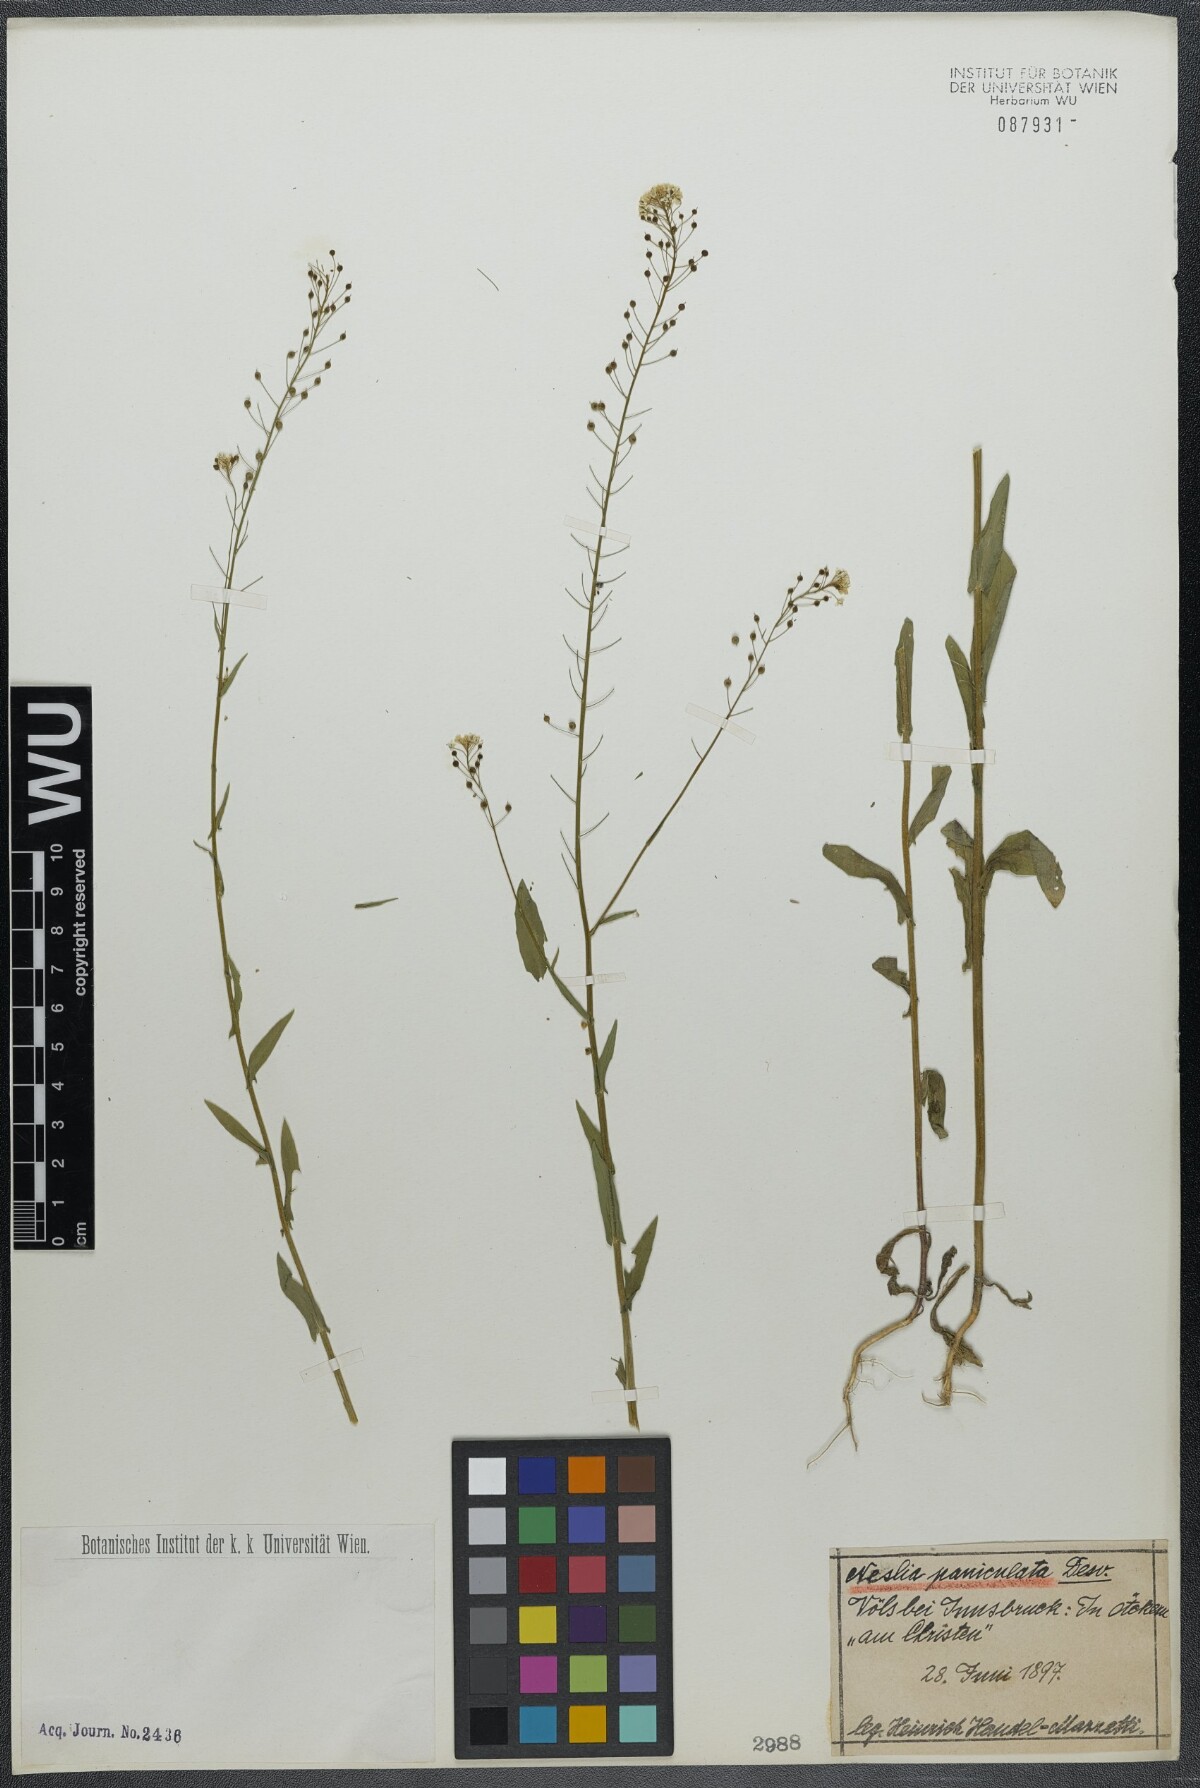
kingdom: Plantae
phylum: Tracheophyta
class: Magnoliopsida
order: Brassicales
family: Brassicaceae
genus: Neslia
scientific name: Neslia paniculata
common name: Ball mustard
